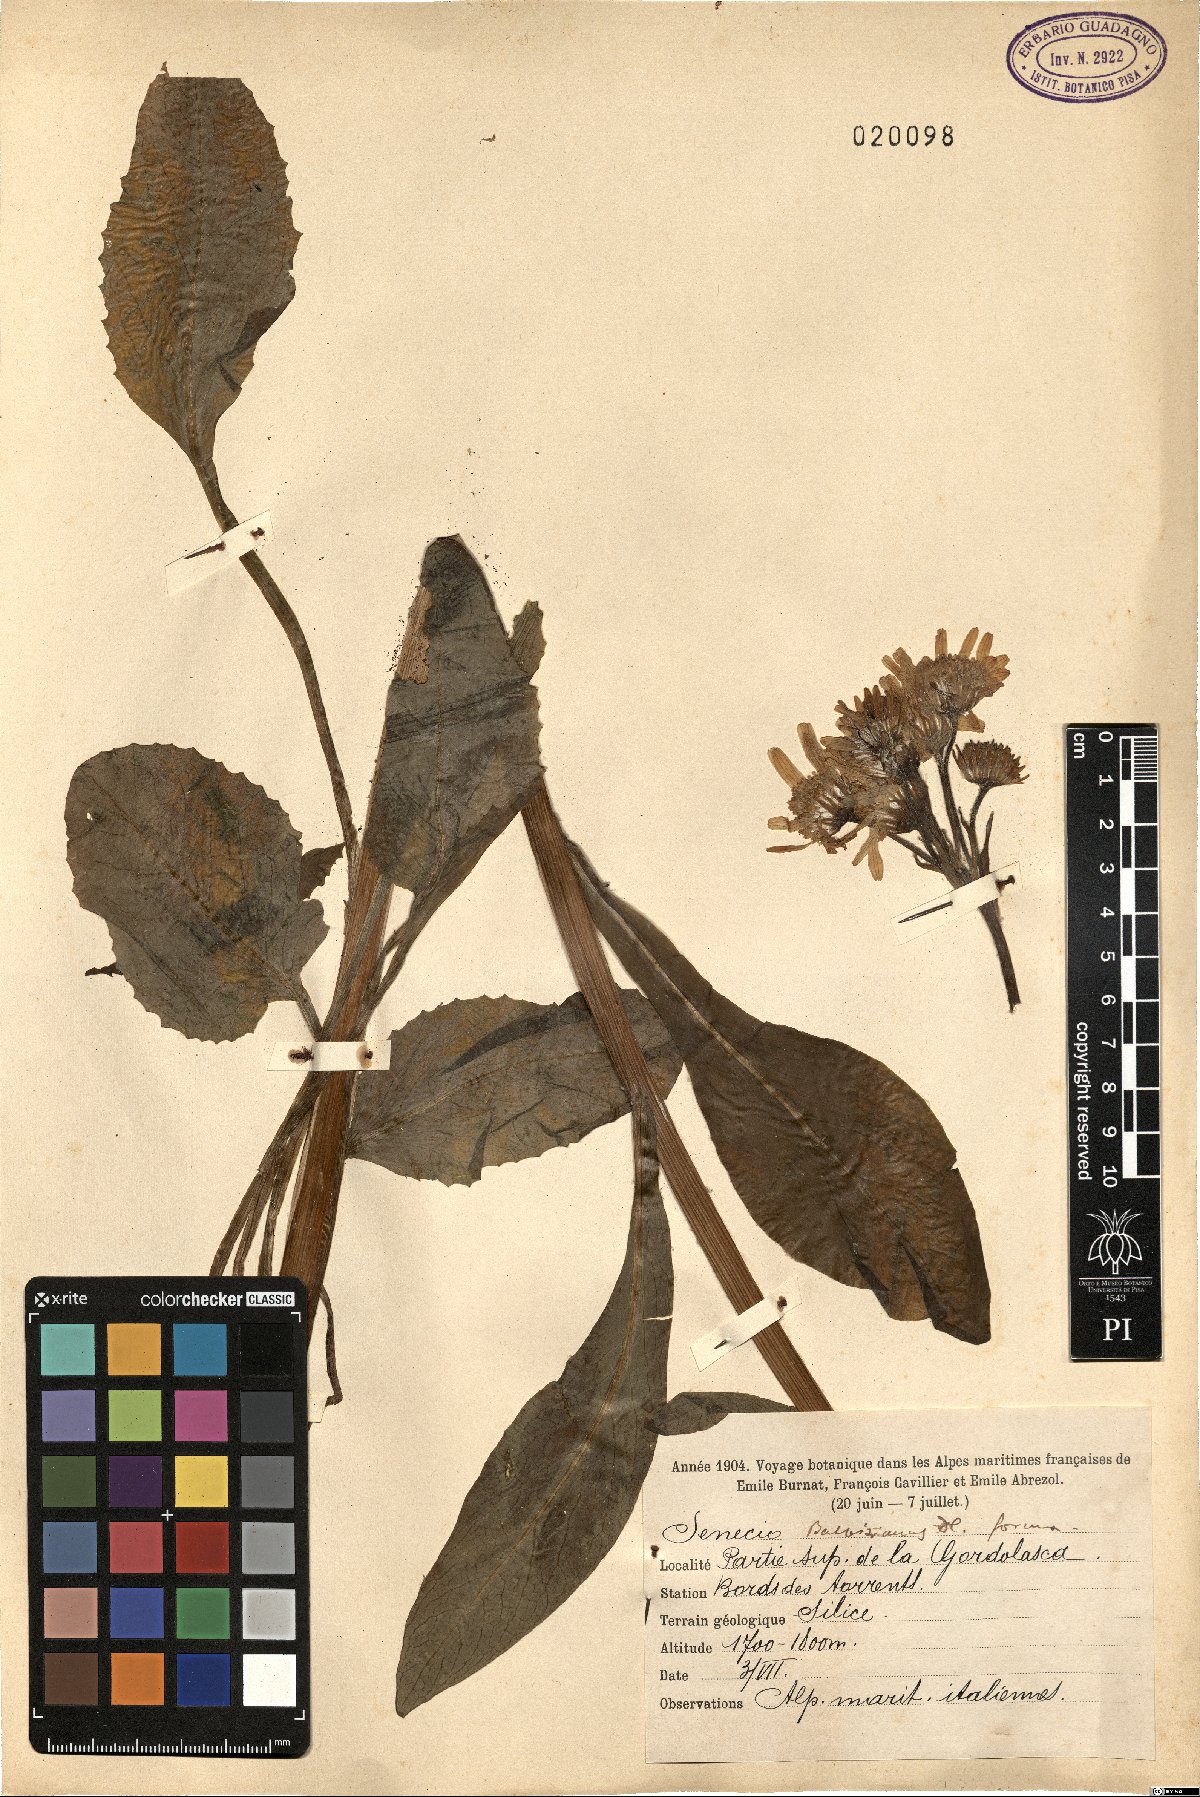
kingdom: Plantae
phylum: Tracheophyta
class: Magnoliopsida
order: Asterales
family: Asteraceae
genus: Tephroseris
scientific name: Tephroseris balbisiana
